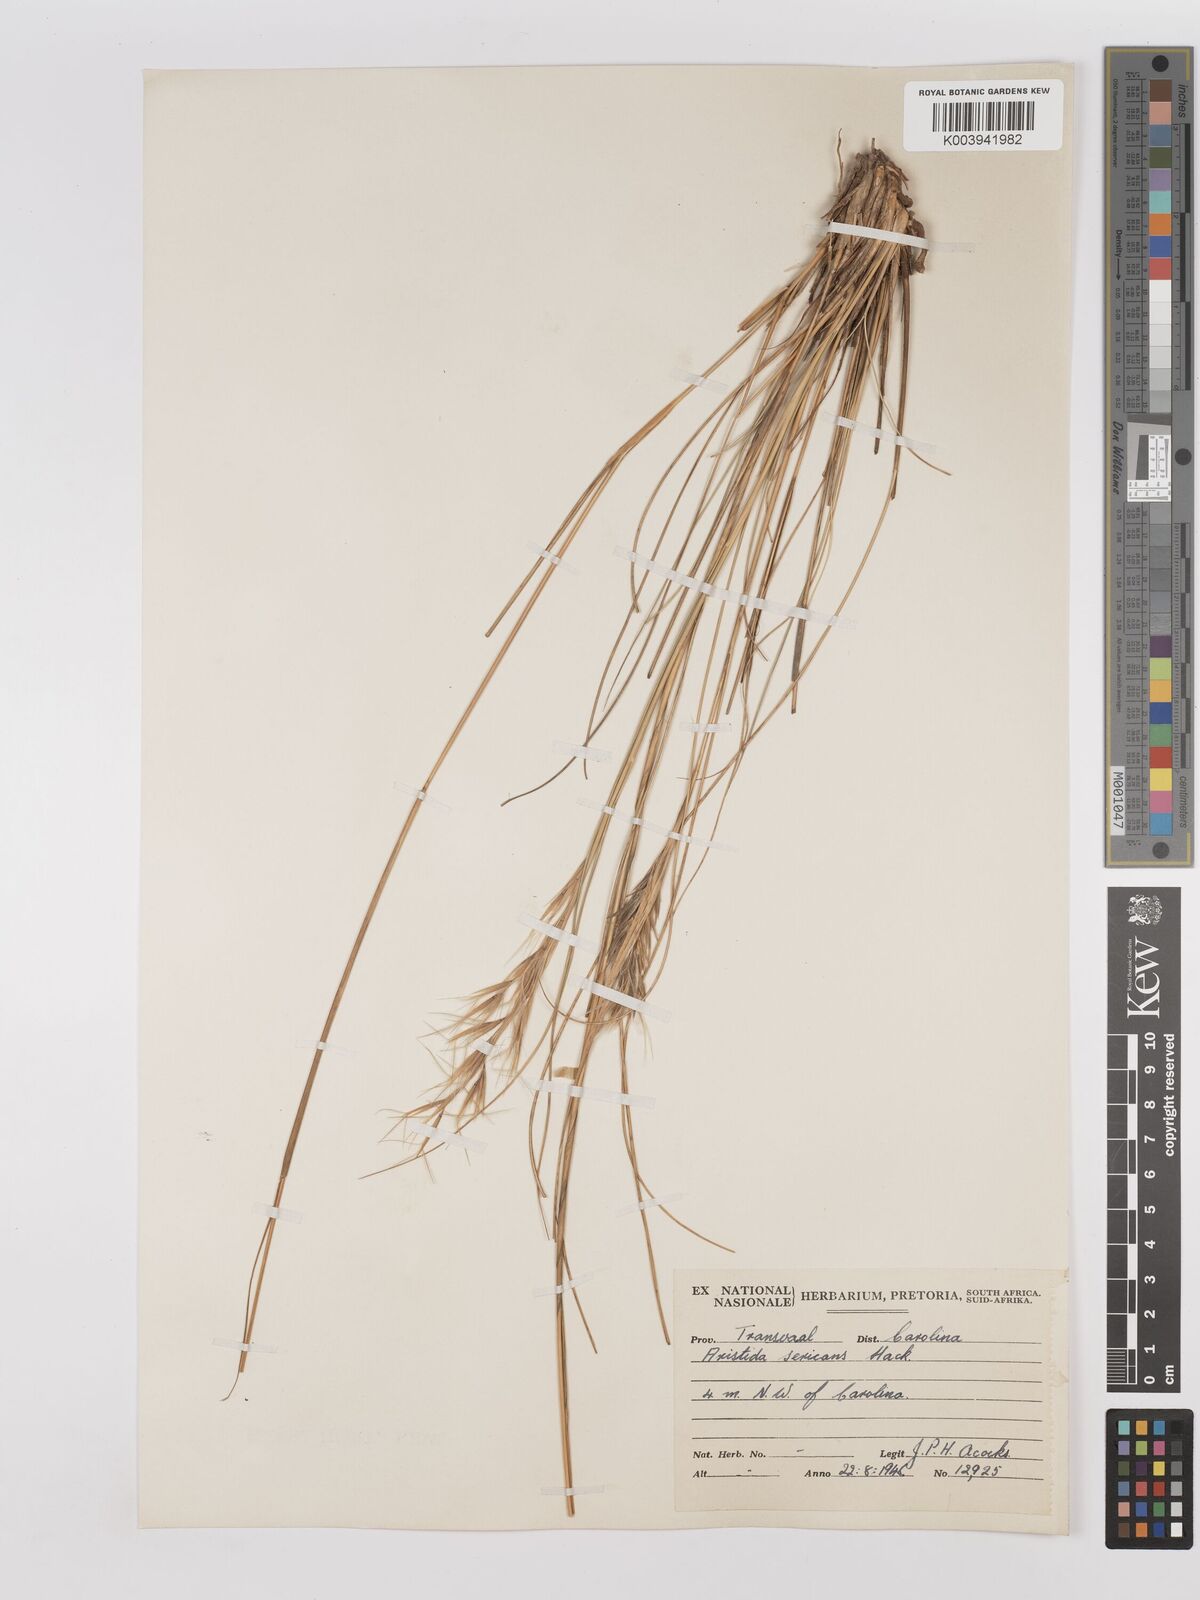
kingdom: Plantae
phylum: Tracheophyta
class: Liliopsida
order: Poales
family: Poaceae
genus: Stipagrostis
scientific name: Stipagrostis zeyheri
